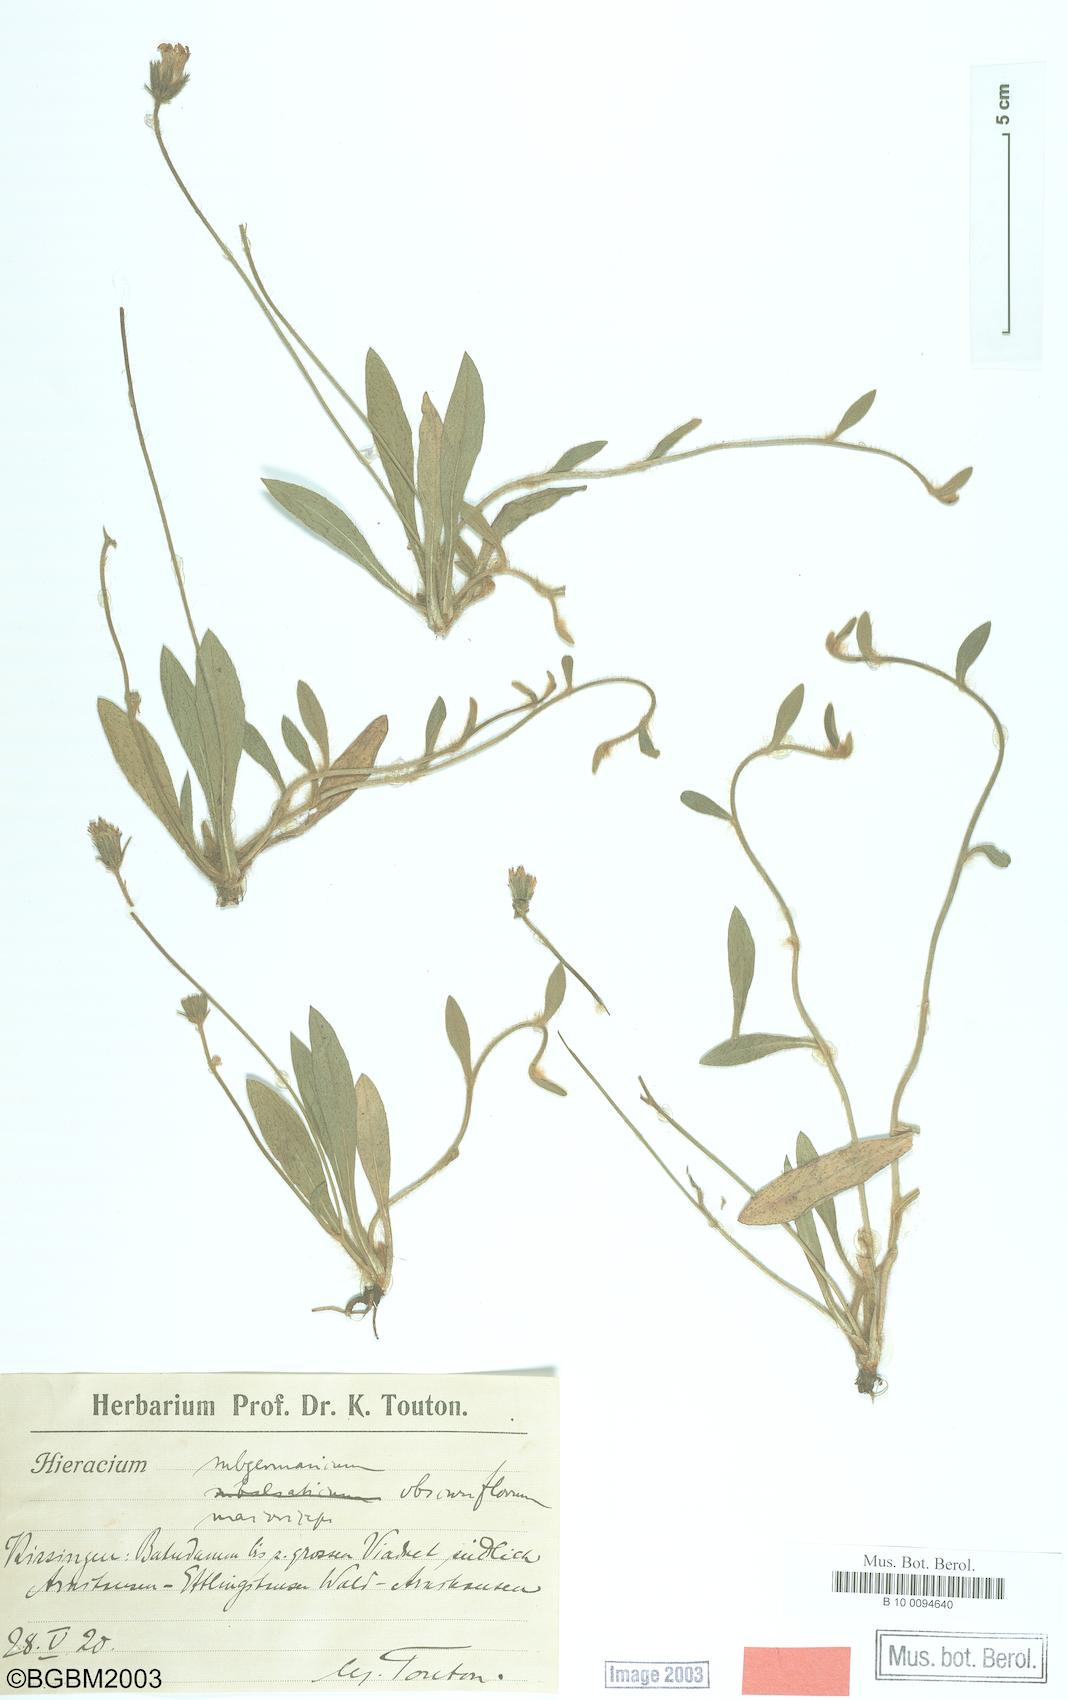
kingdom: Plantae
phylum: Tracheophyta
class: Magnoliopsida
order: Asterales
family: Asteraceae
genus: Hieracium
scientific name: Hieracium subgermanicum
